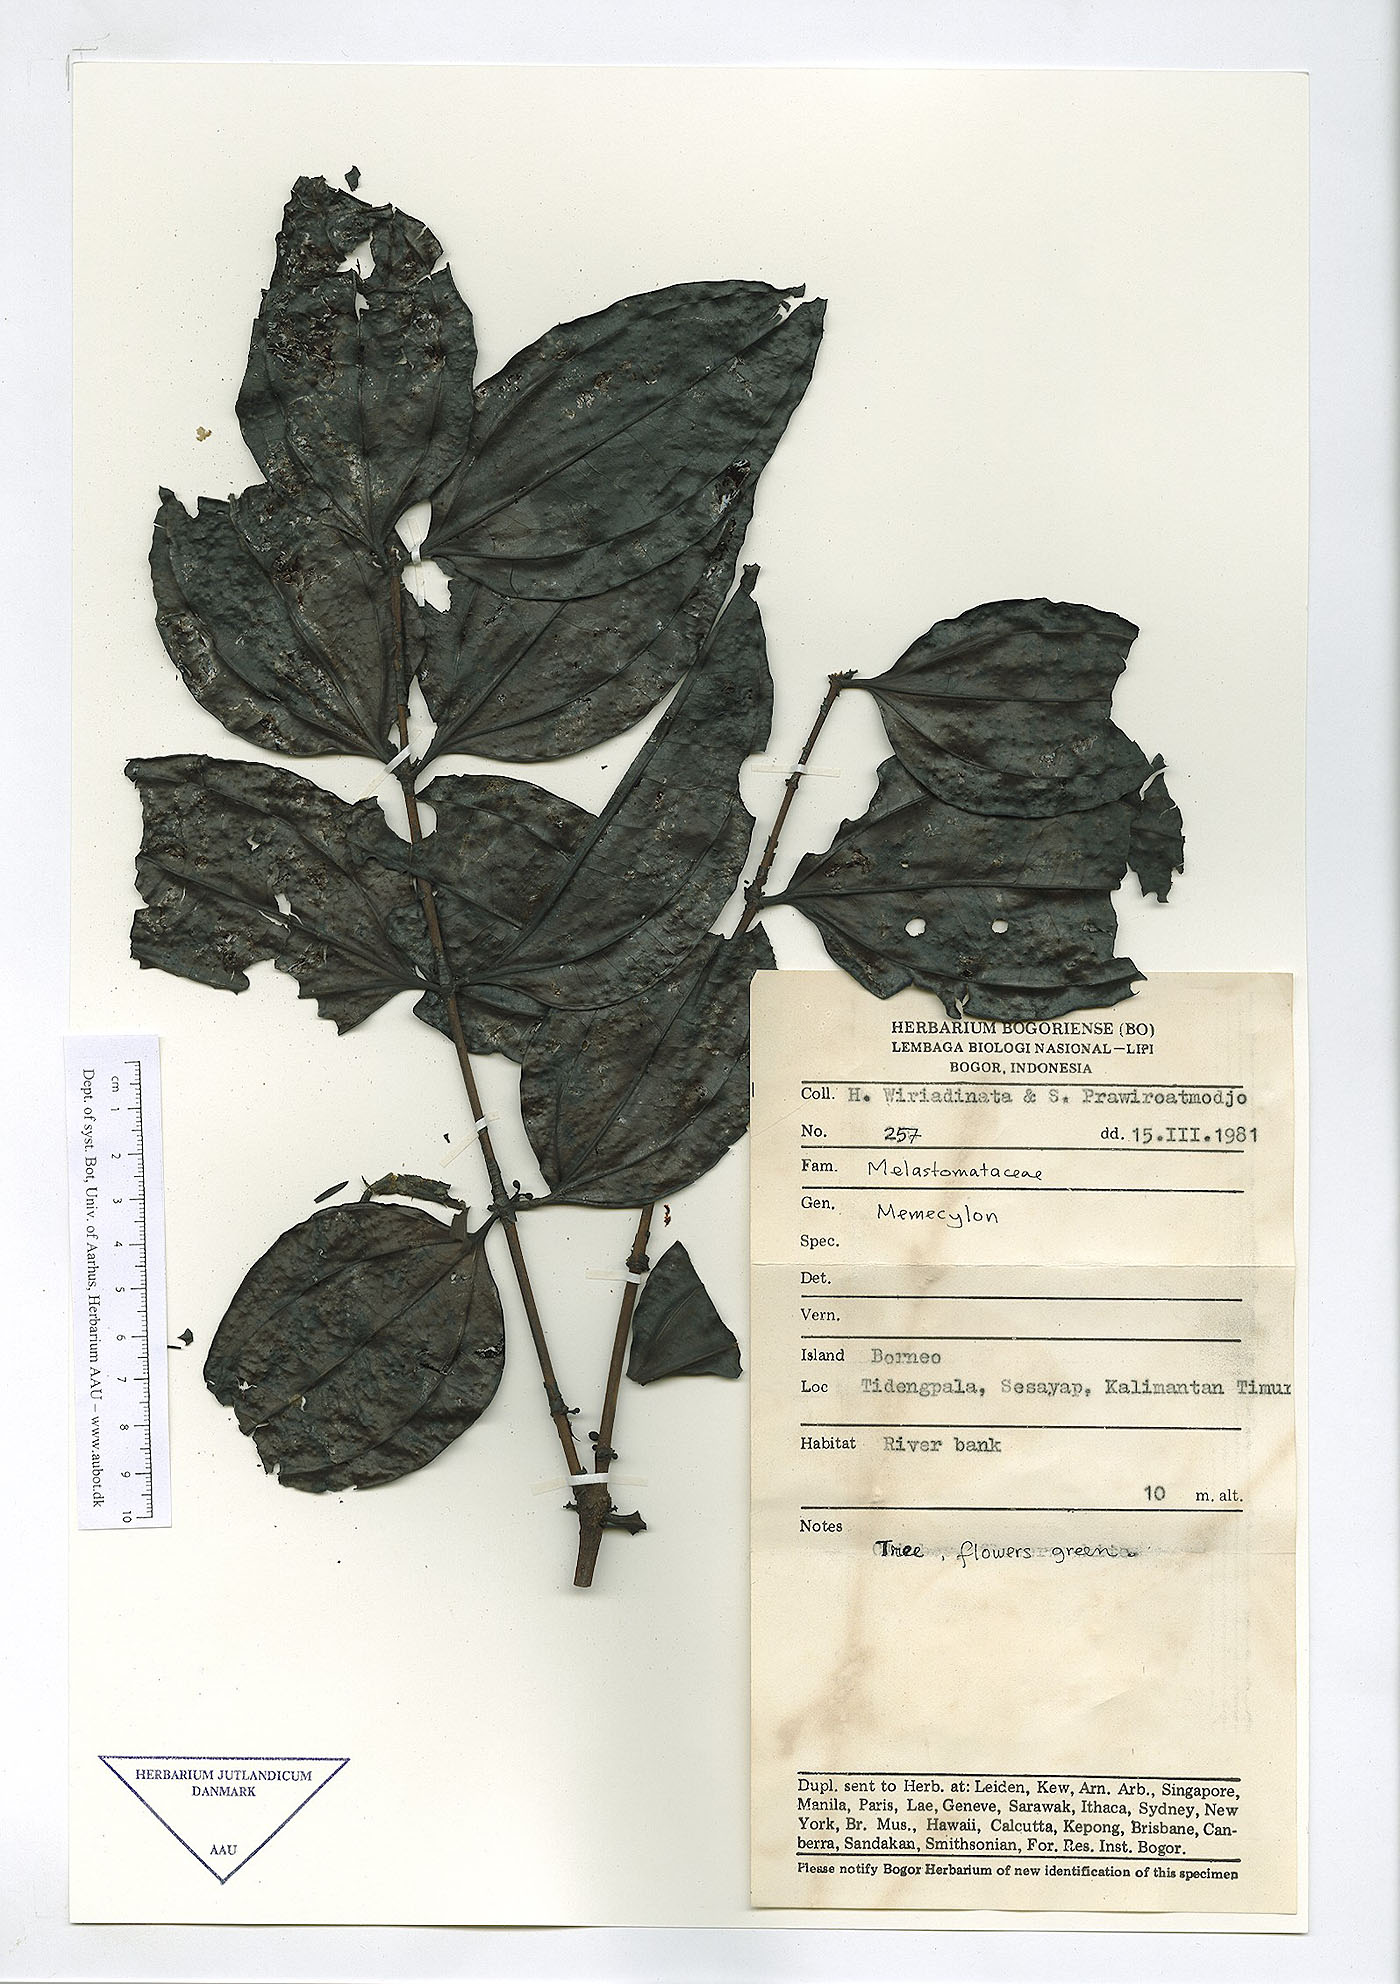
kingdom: Plantae
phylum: Tracheophyta
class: Magnoliopsida
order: Myrtales
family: Melastomataceae
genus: Memecylon
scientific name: Memecylon
